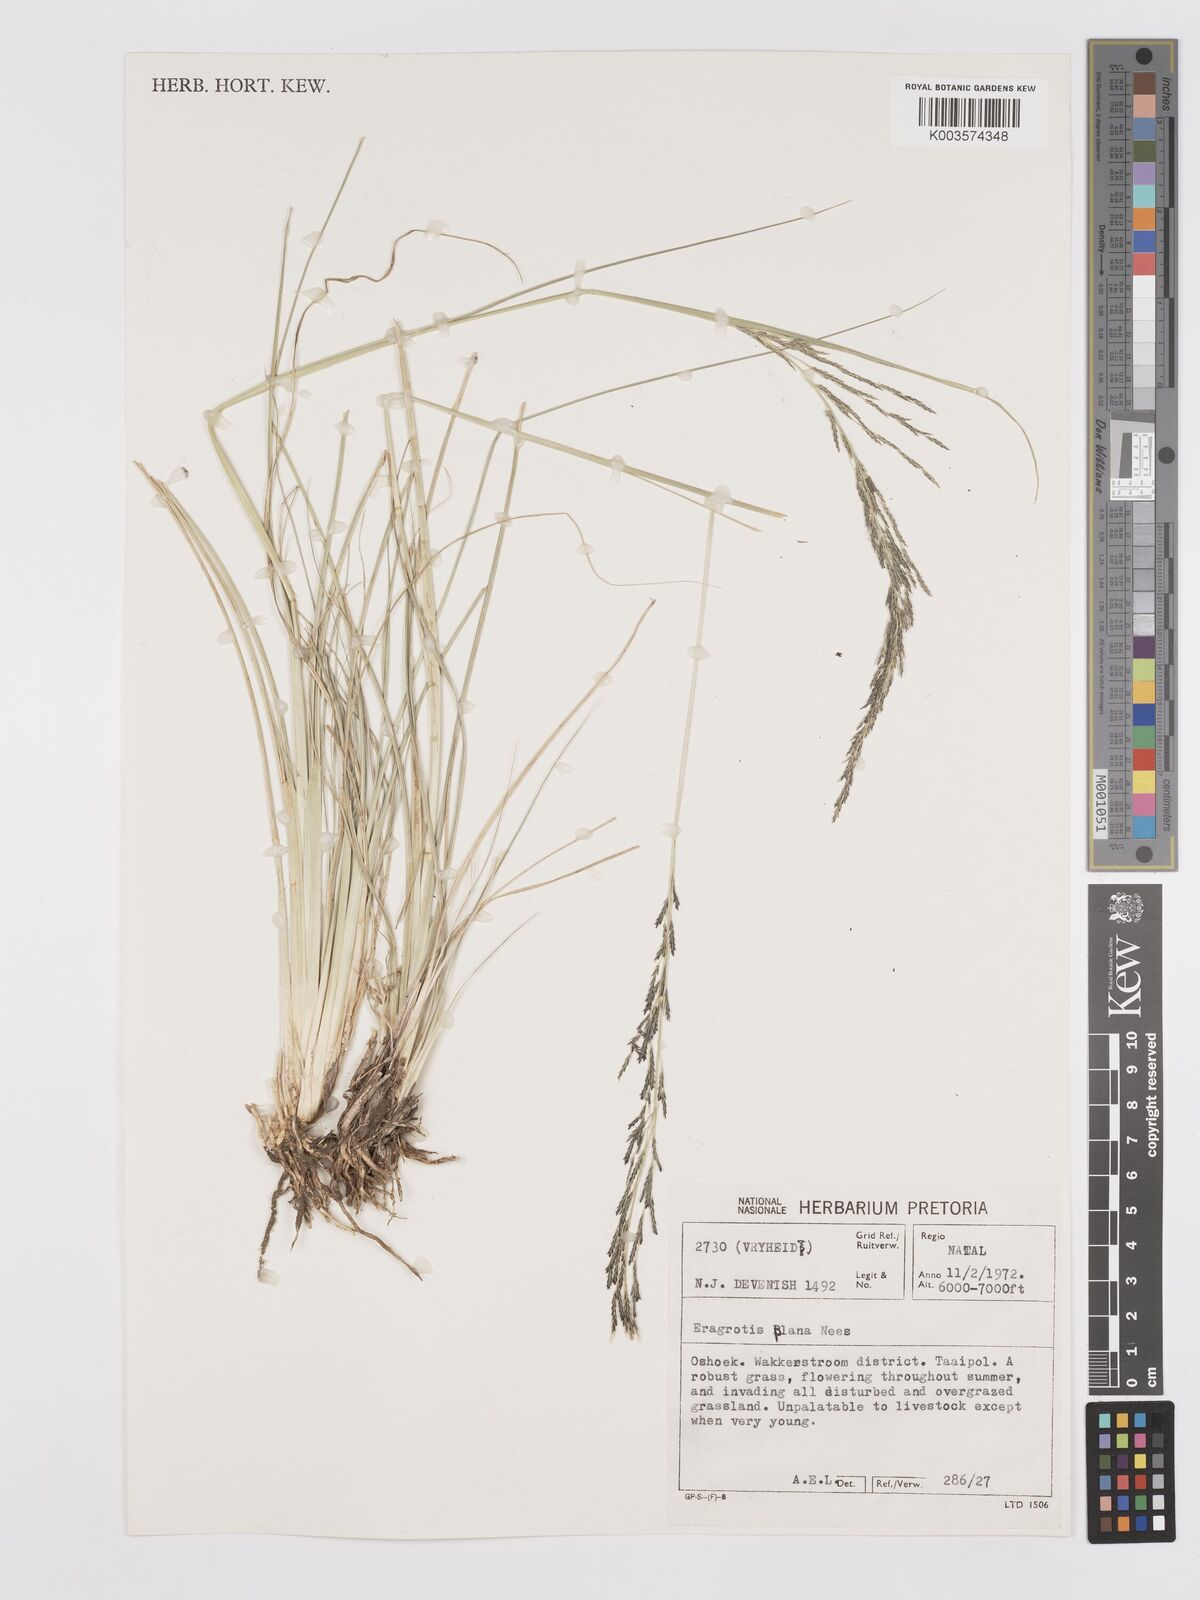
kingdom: Plantae
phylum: Tracheophyta
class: Liliopsida
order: Poales
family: Poaceae
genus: Eragrostis
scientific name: Eragrostis plana
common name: South african lovegrass
